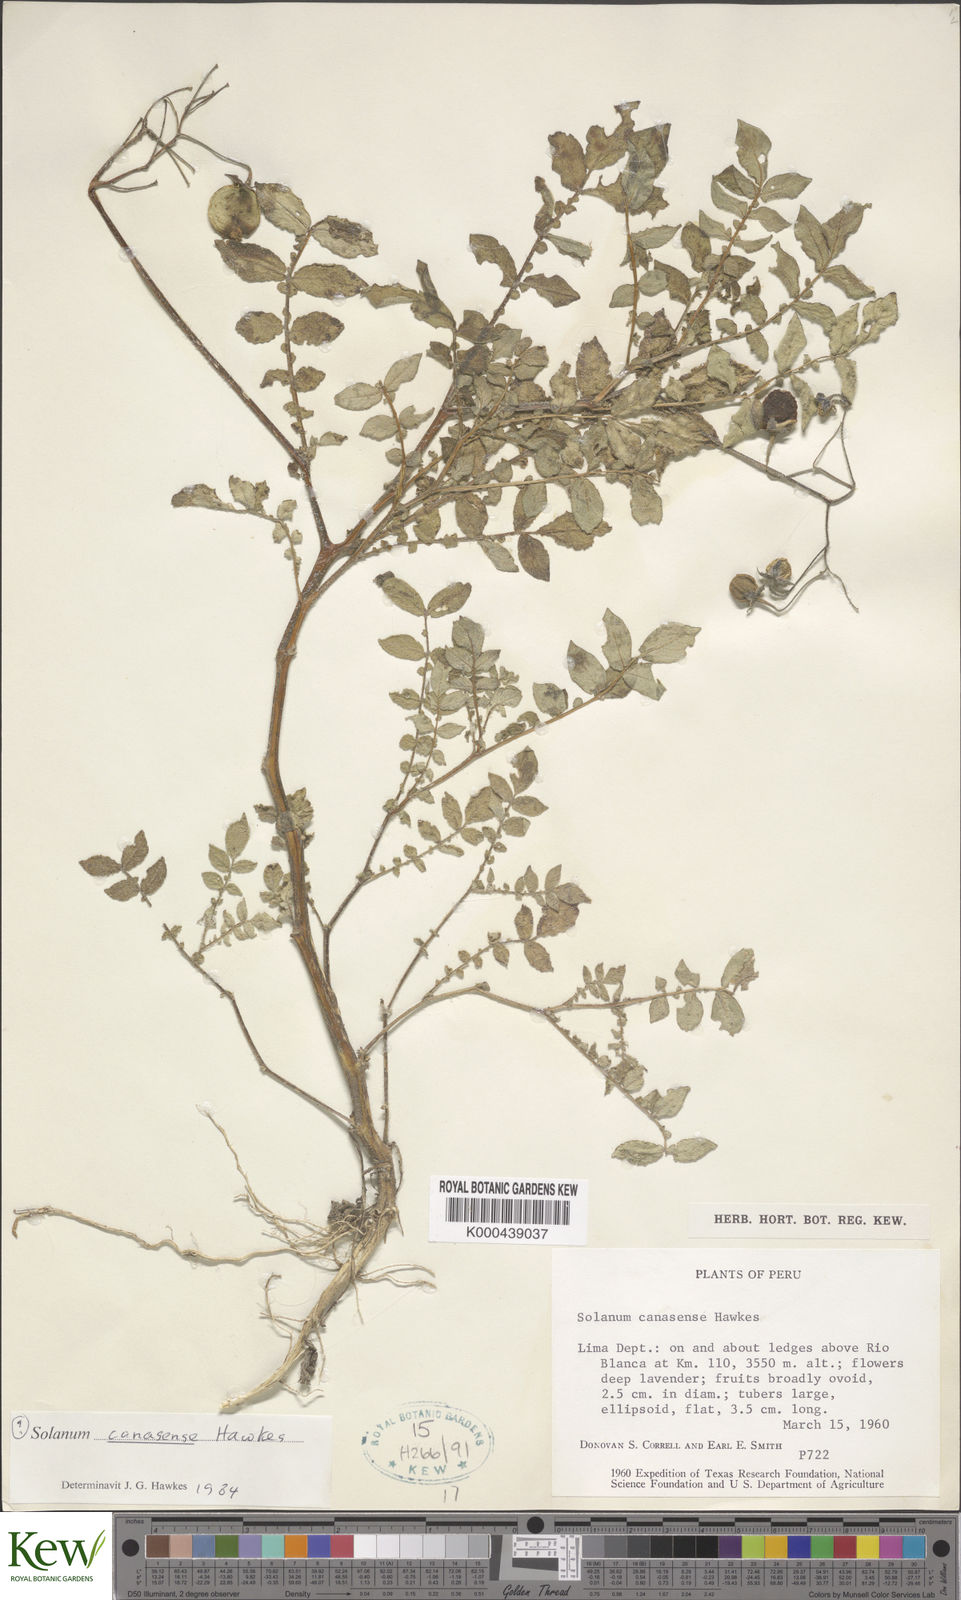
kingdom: Plantae
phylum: Tracheophyta
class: Magnoliopsida
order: Solanales
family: Solanaceae
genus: Solanum
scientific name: Solanum candolleanum
